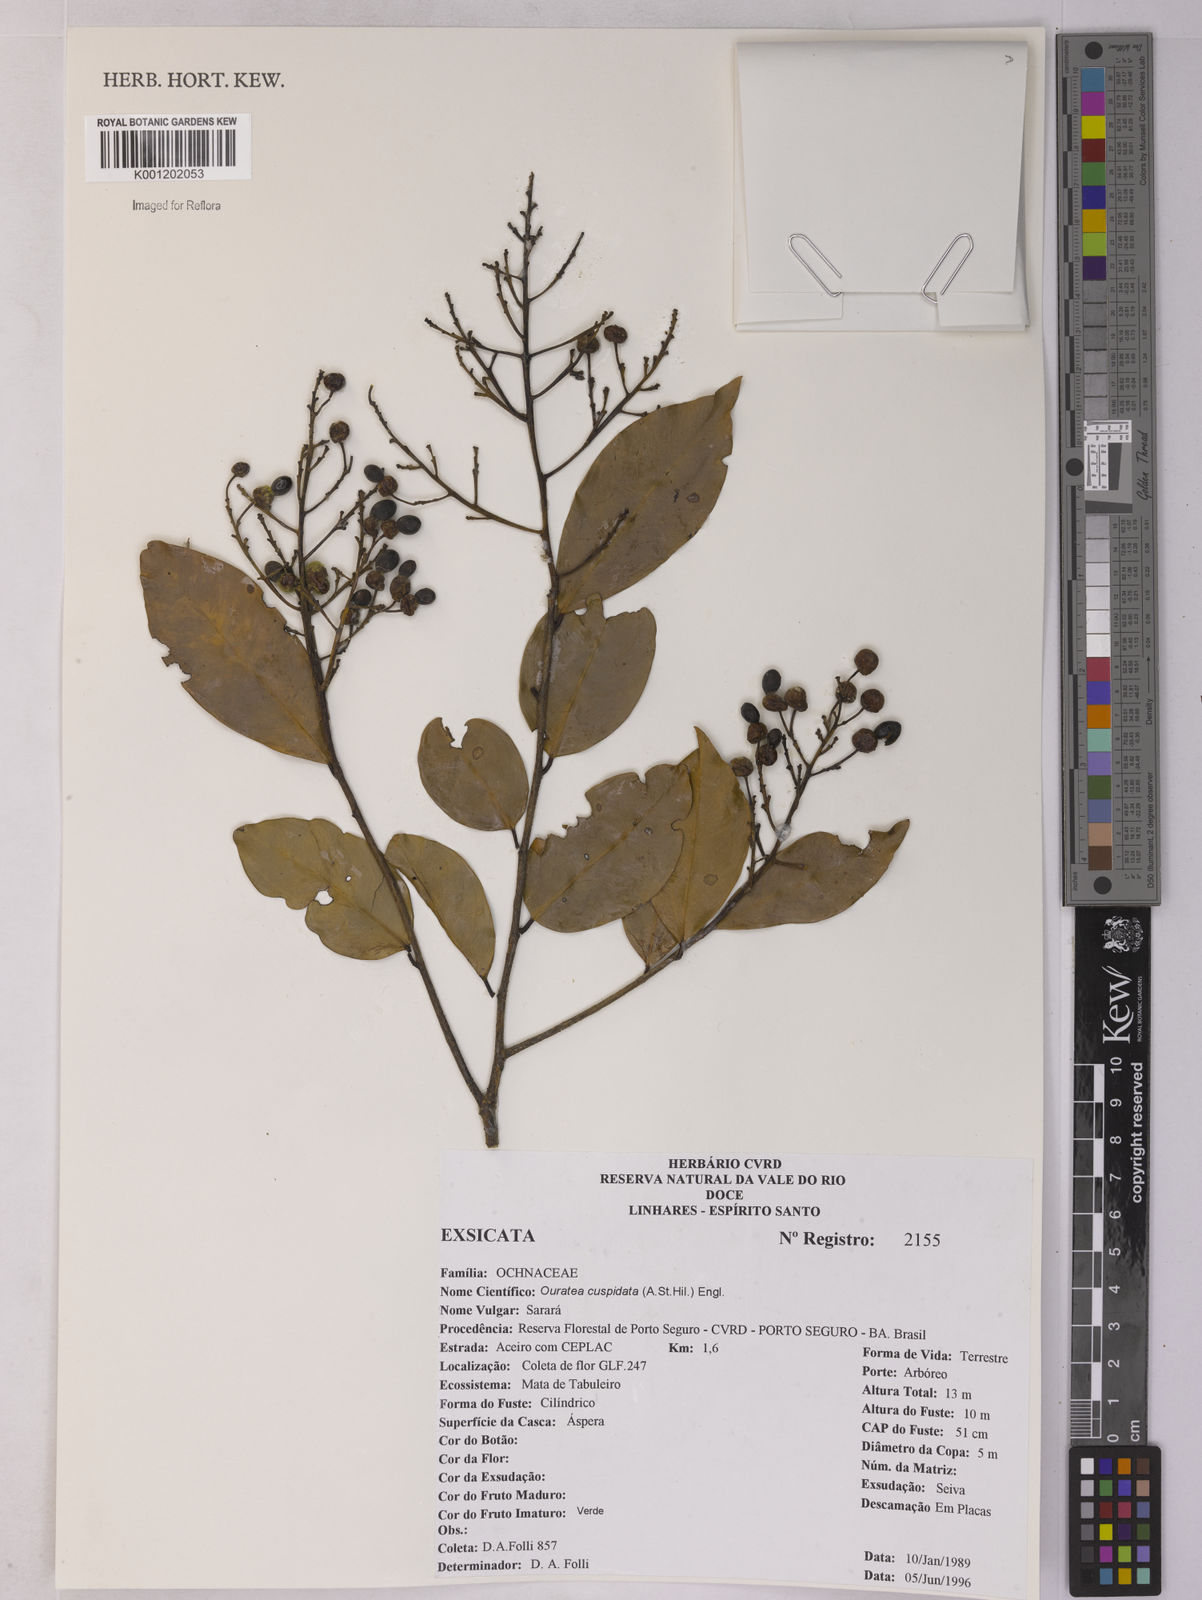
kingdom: Plantae
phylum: Tracheophyta
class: Magnoliopsida
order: Malpighiales
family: Ochnaceae
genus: Ouratea
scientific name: Ouratea cuspidata
